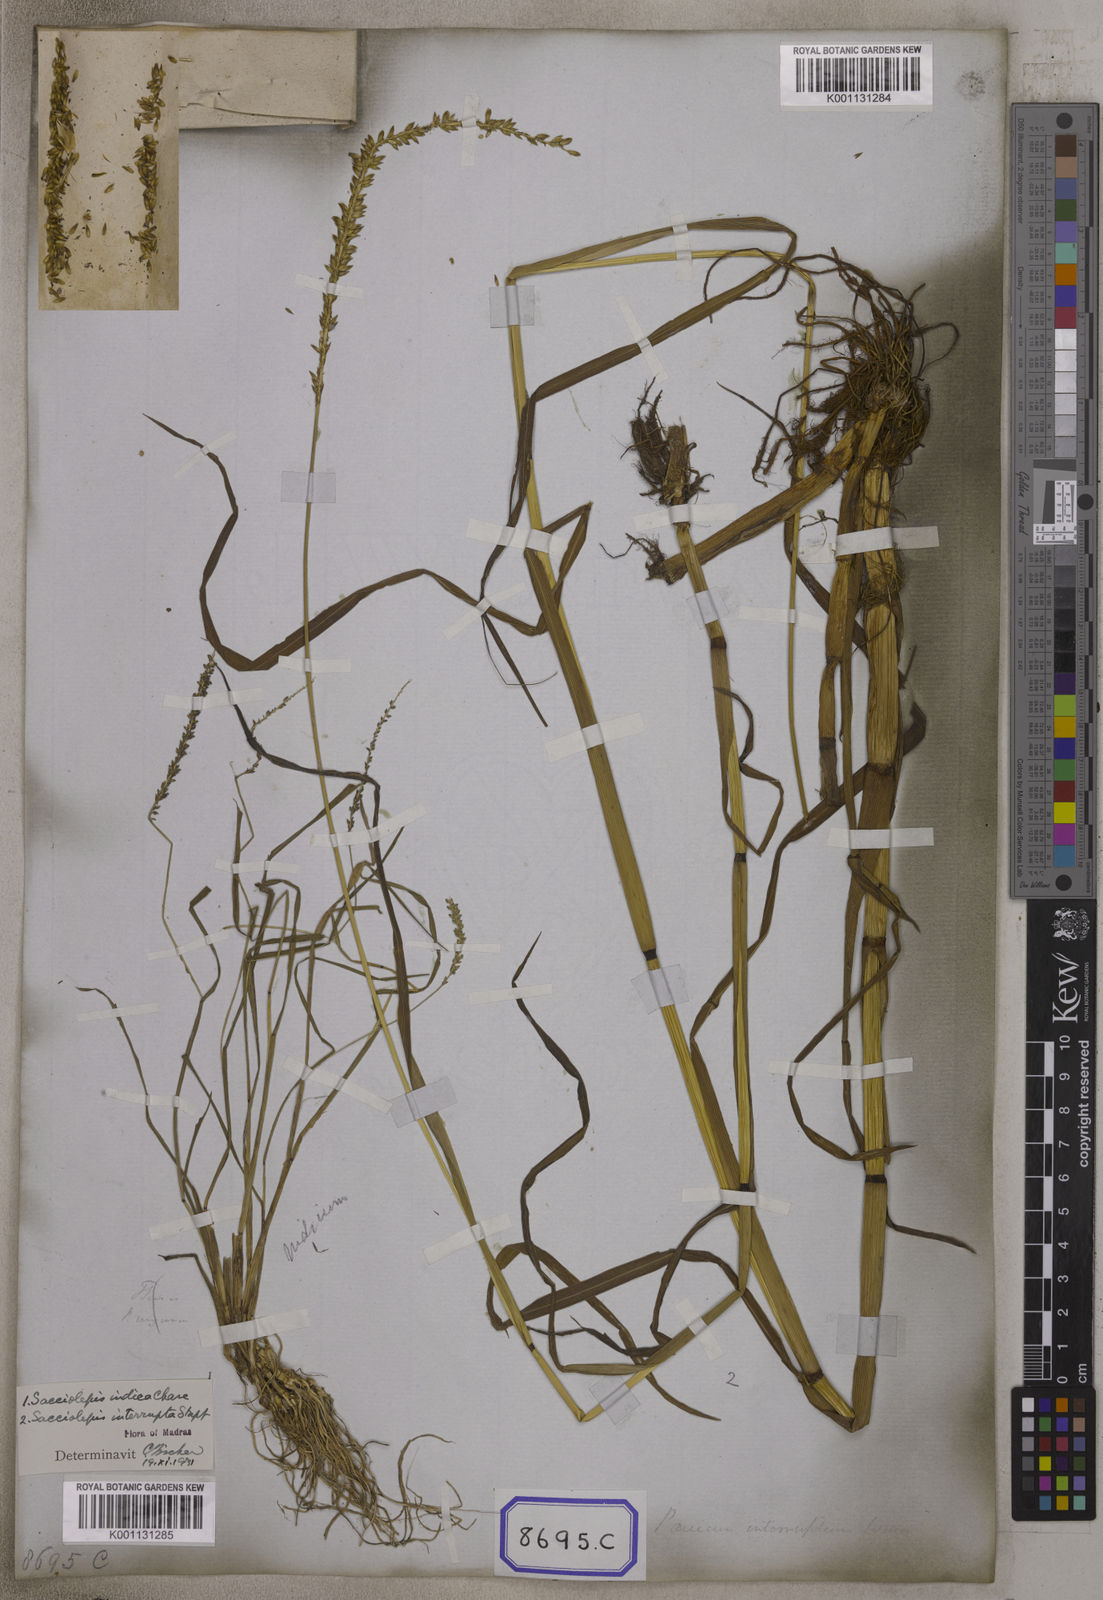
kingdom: Plantae
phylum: Tracheophyta
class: Liliopsida
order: Poales
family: Poaceae
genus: Sacciolepis
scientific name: Sacciolepis interrupta
